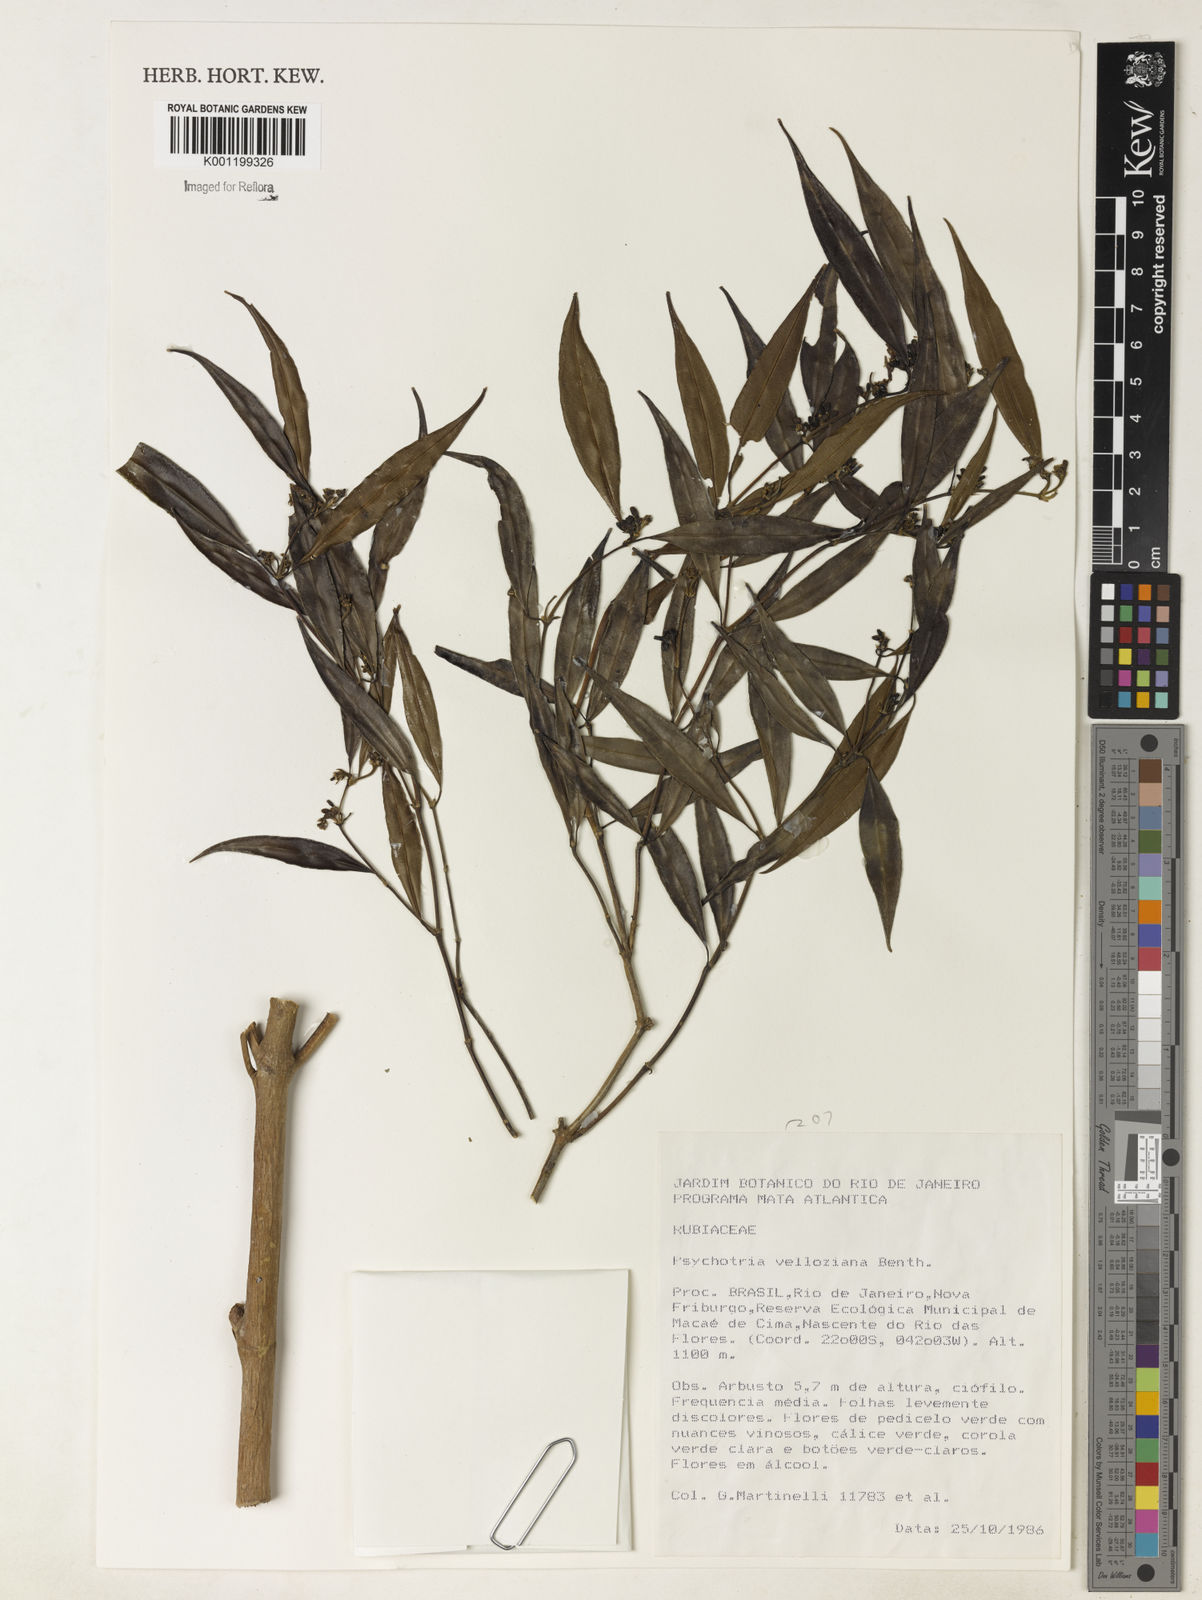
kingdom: Plantae
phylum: Tracheophyta
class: Magnoliopsida
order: Gentianales
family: Rubiaceae
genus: Rudgea
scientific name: Rudgea sessilis
